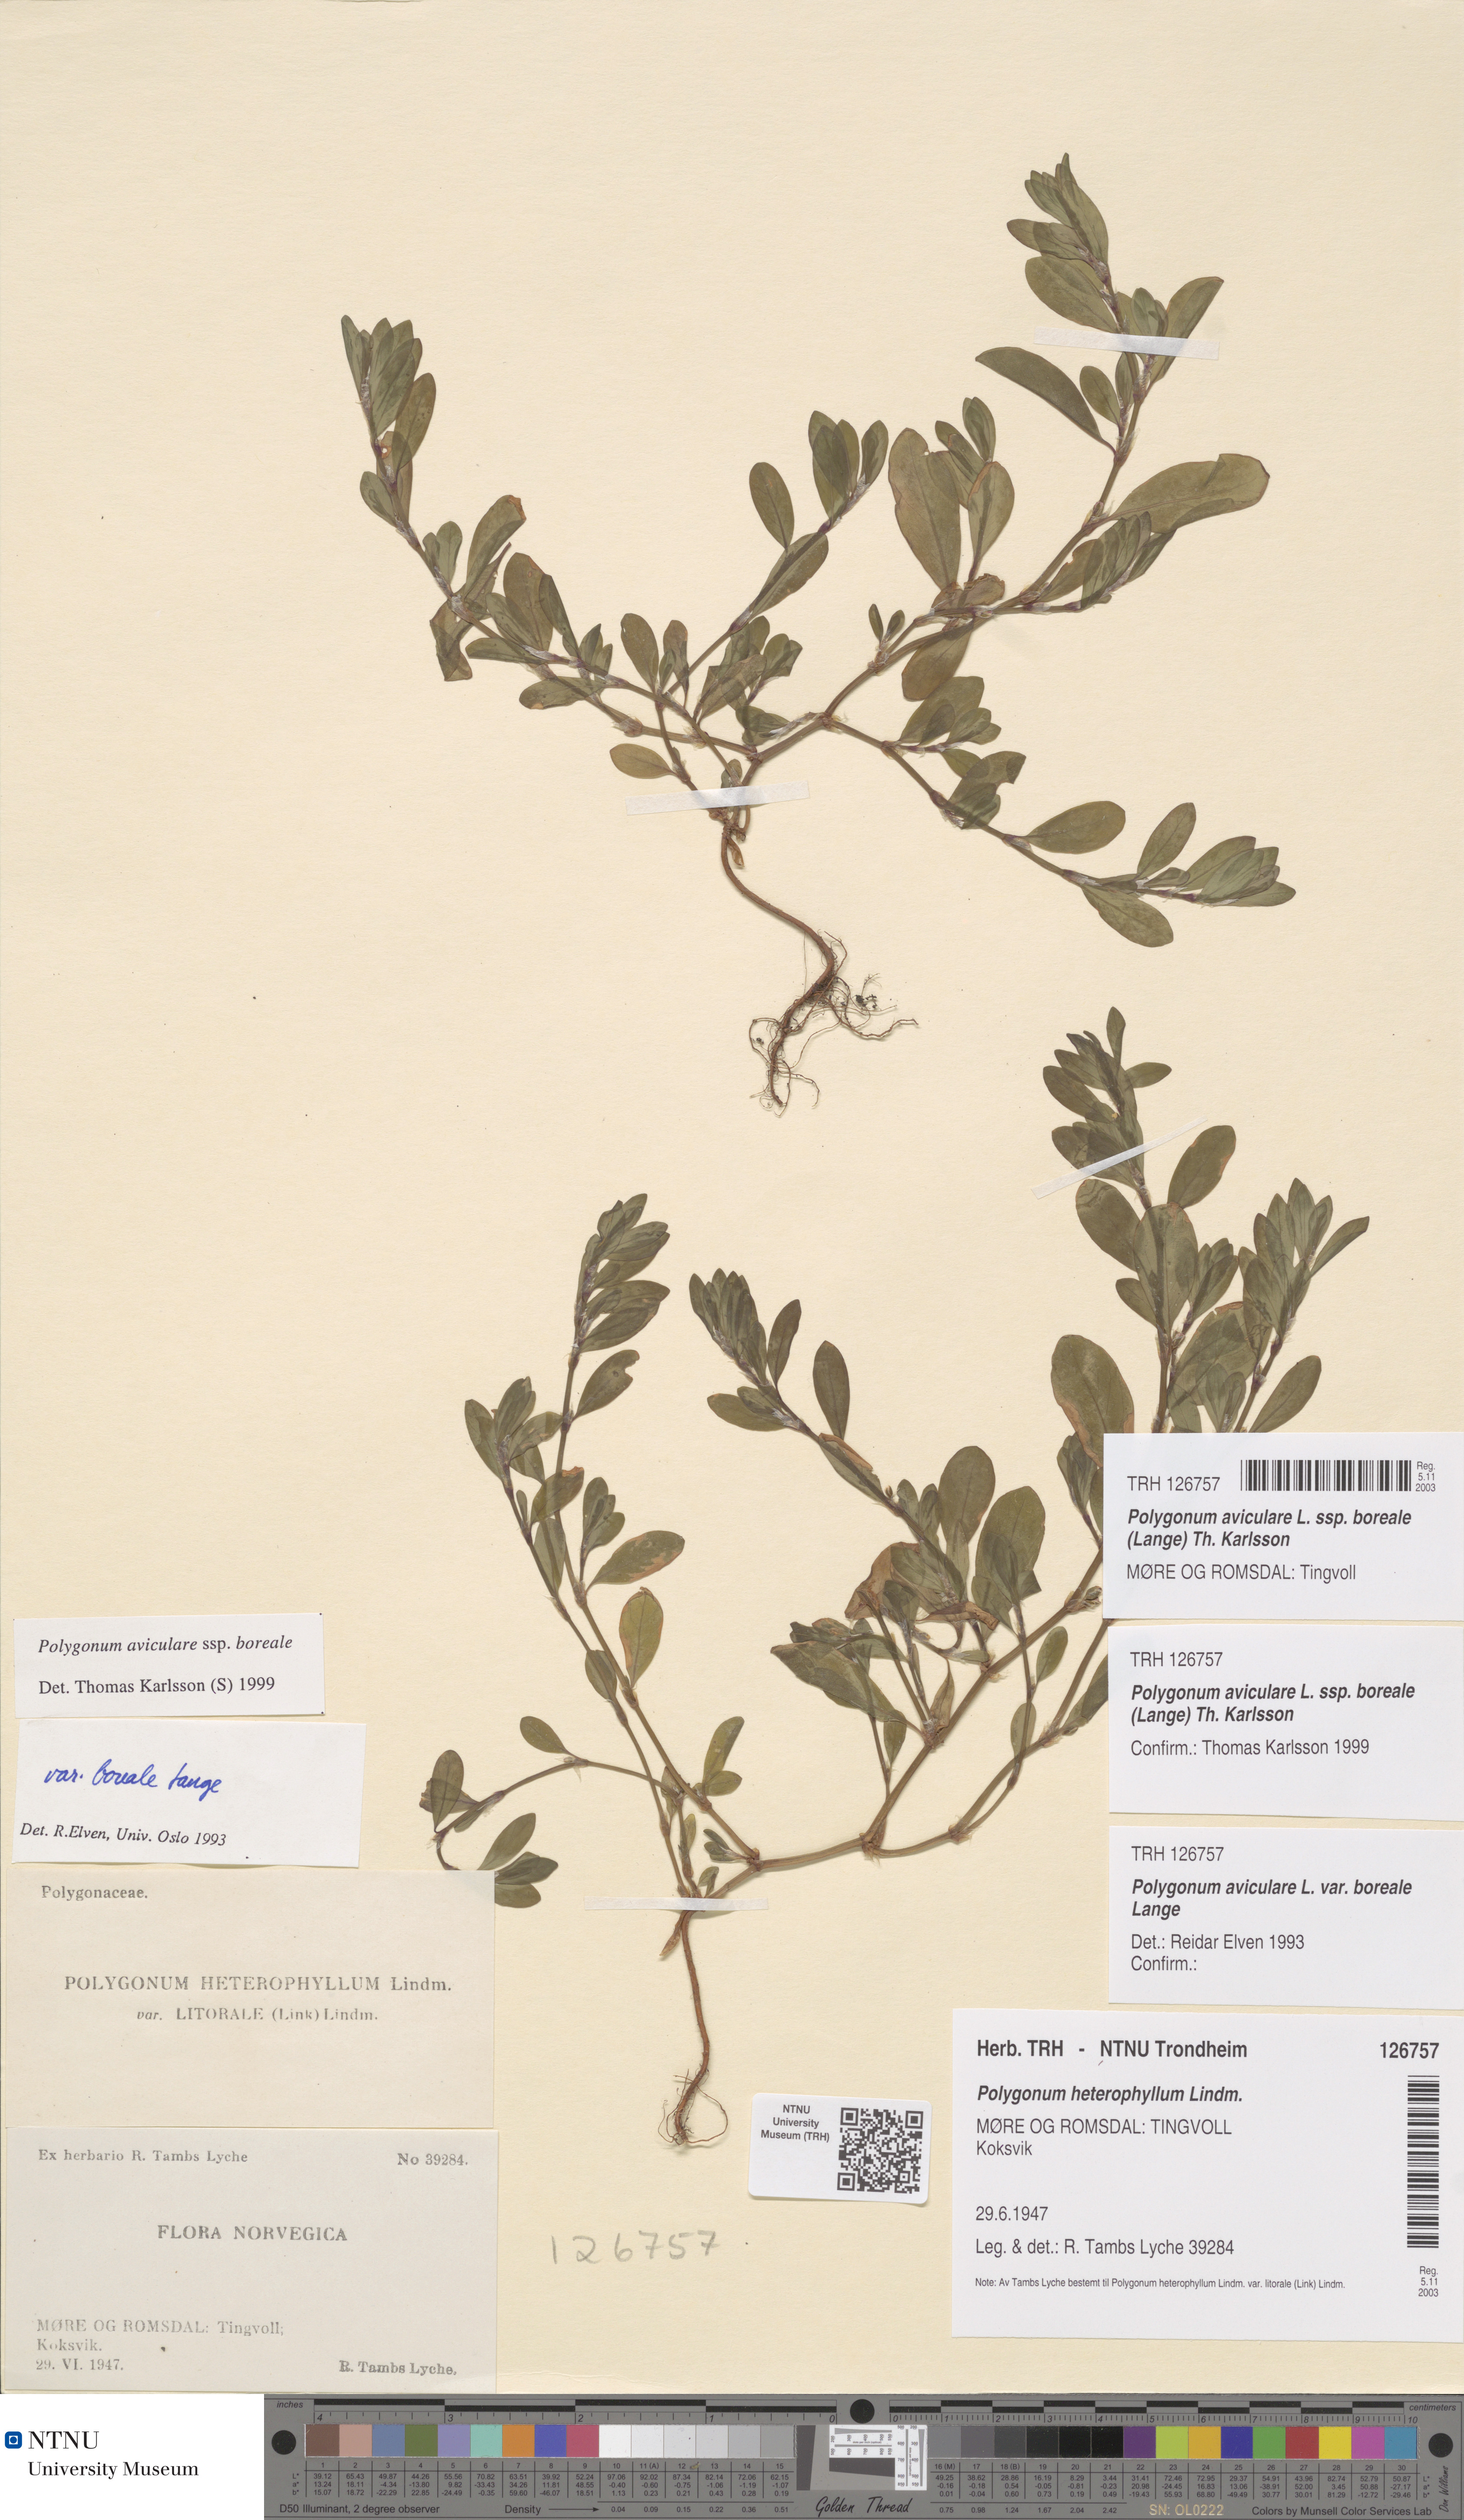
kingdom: Plantae
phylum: Tracheophyta
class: Magnoliopsida
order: Caryophyllales
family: Polygonaceae
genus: Polygonum
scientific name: Polygonum boreale
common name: Northern knotgrass
